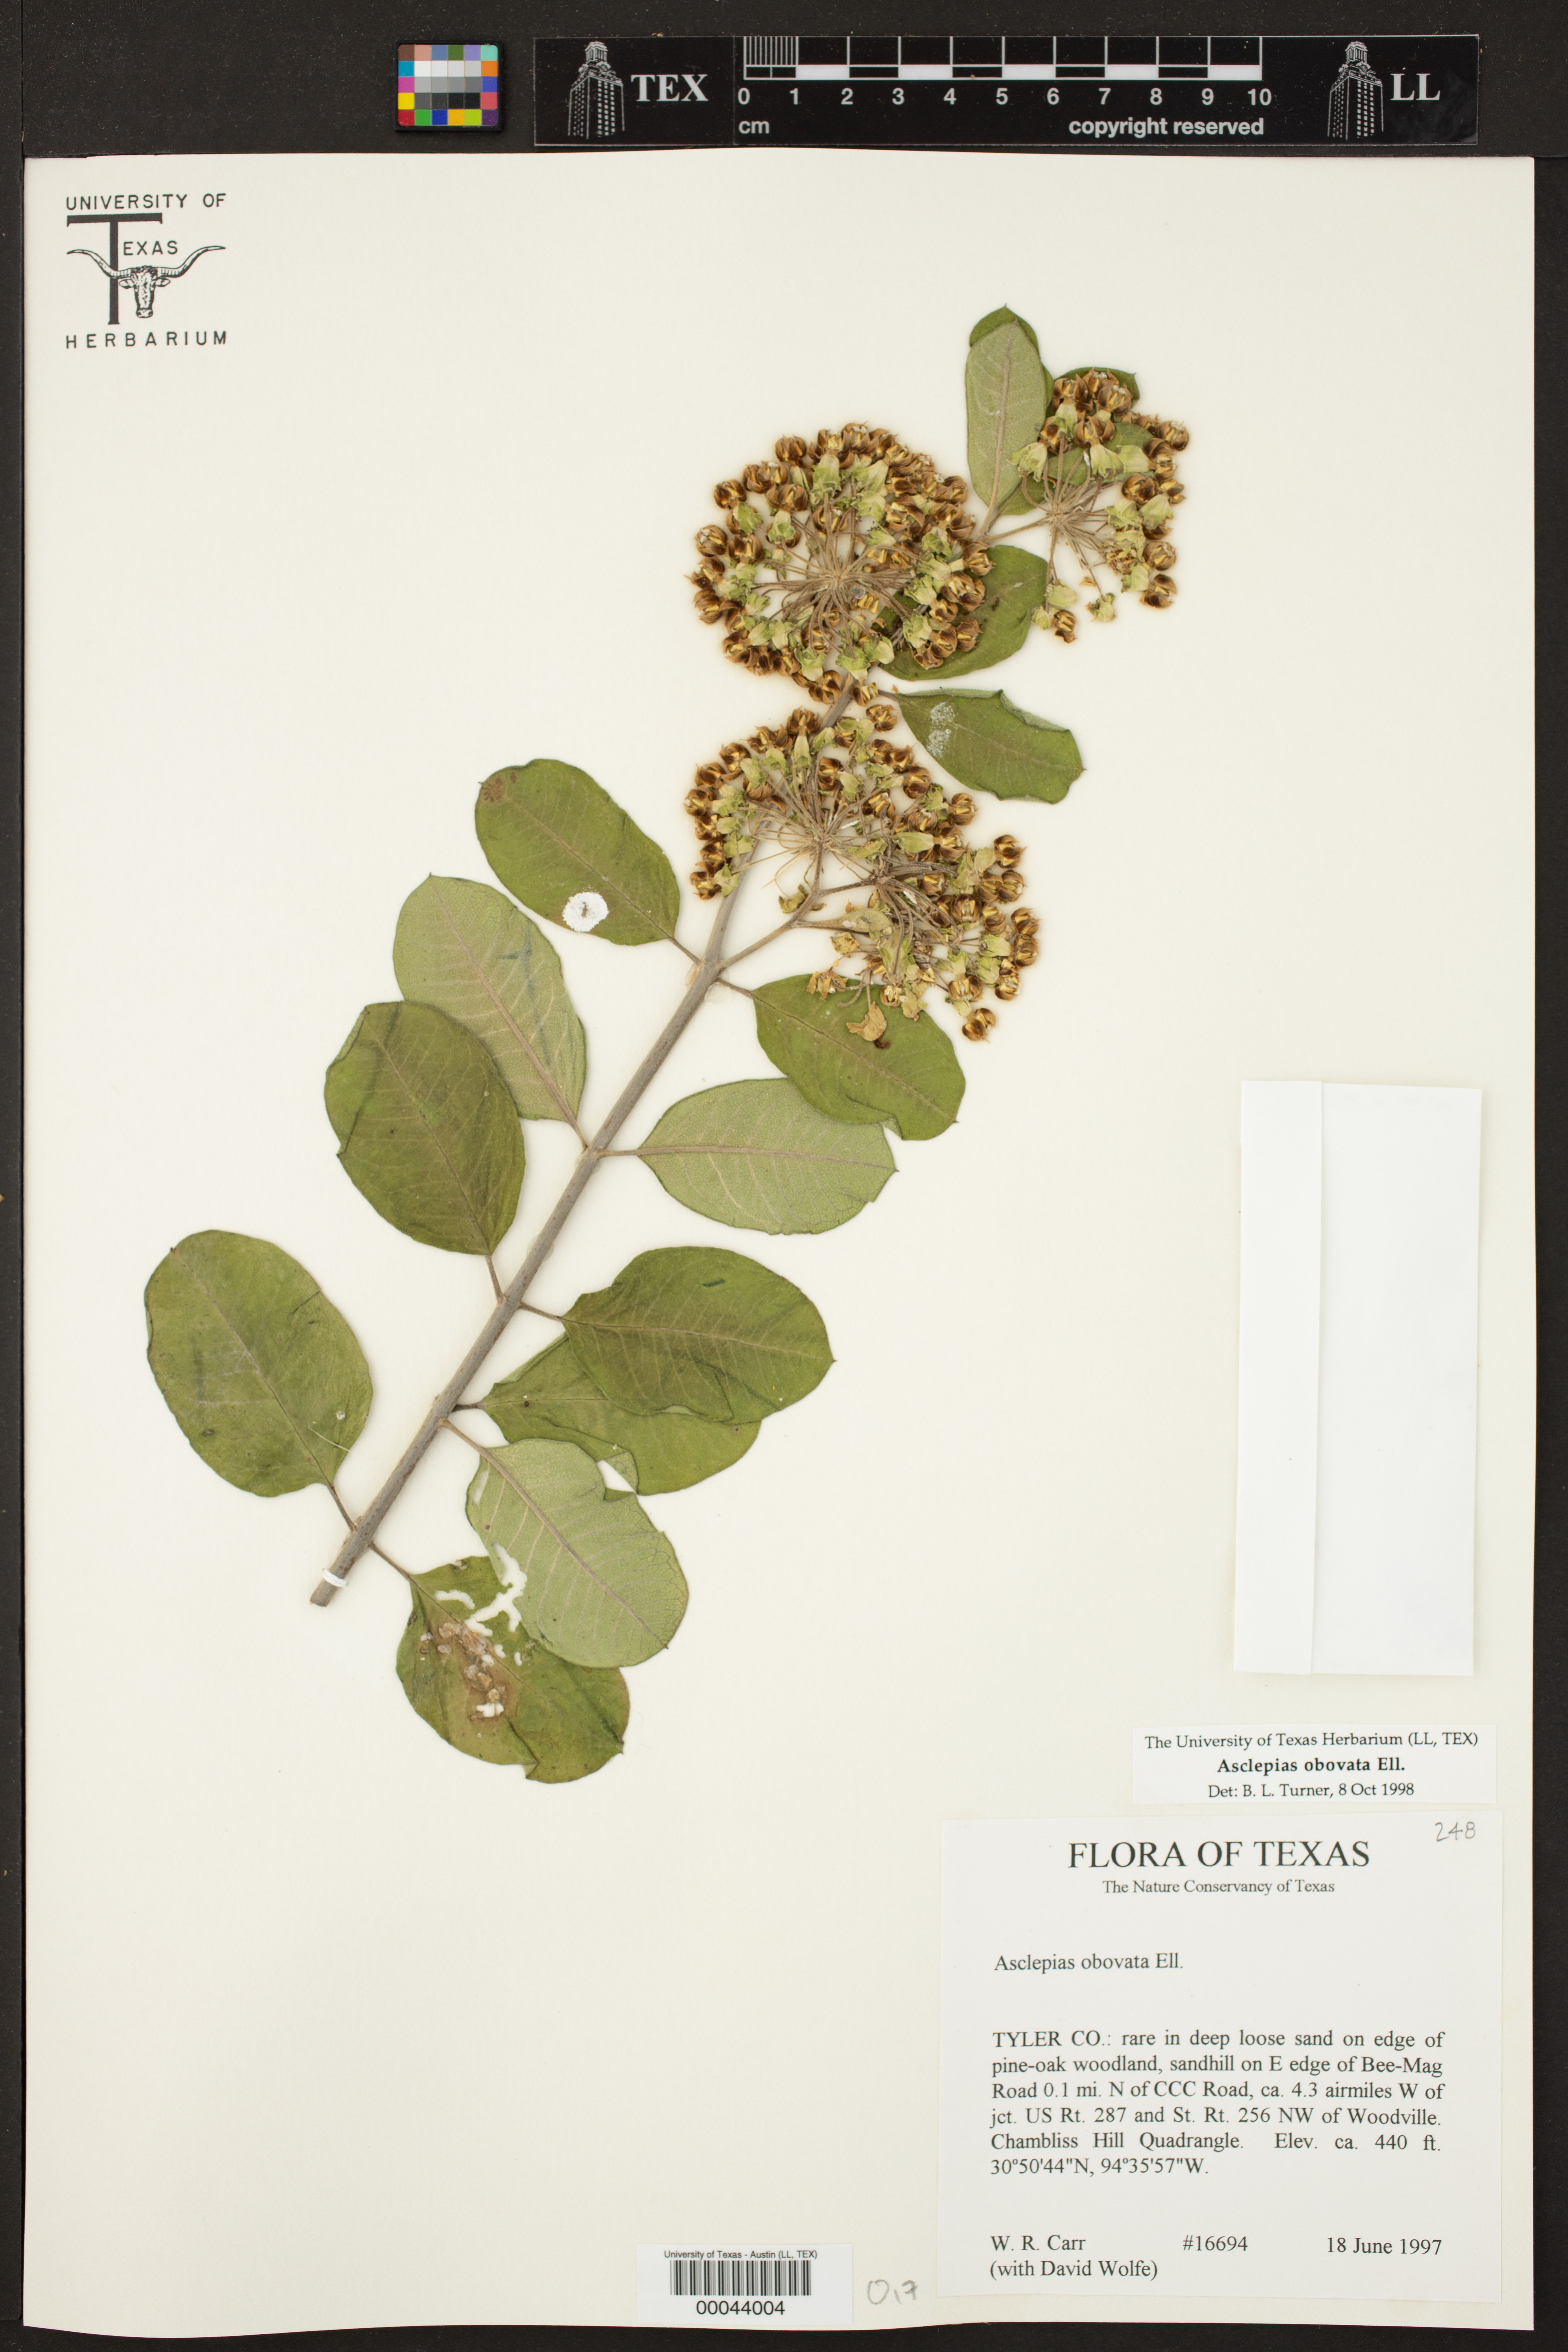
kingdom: Plantae
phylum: Tracheophyta
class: Magnoliopsida
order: Gentianales
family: Apocynaceae
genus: Asclepias
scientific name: Asclepias obovata
